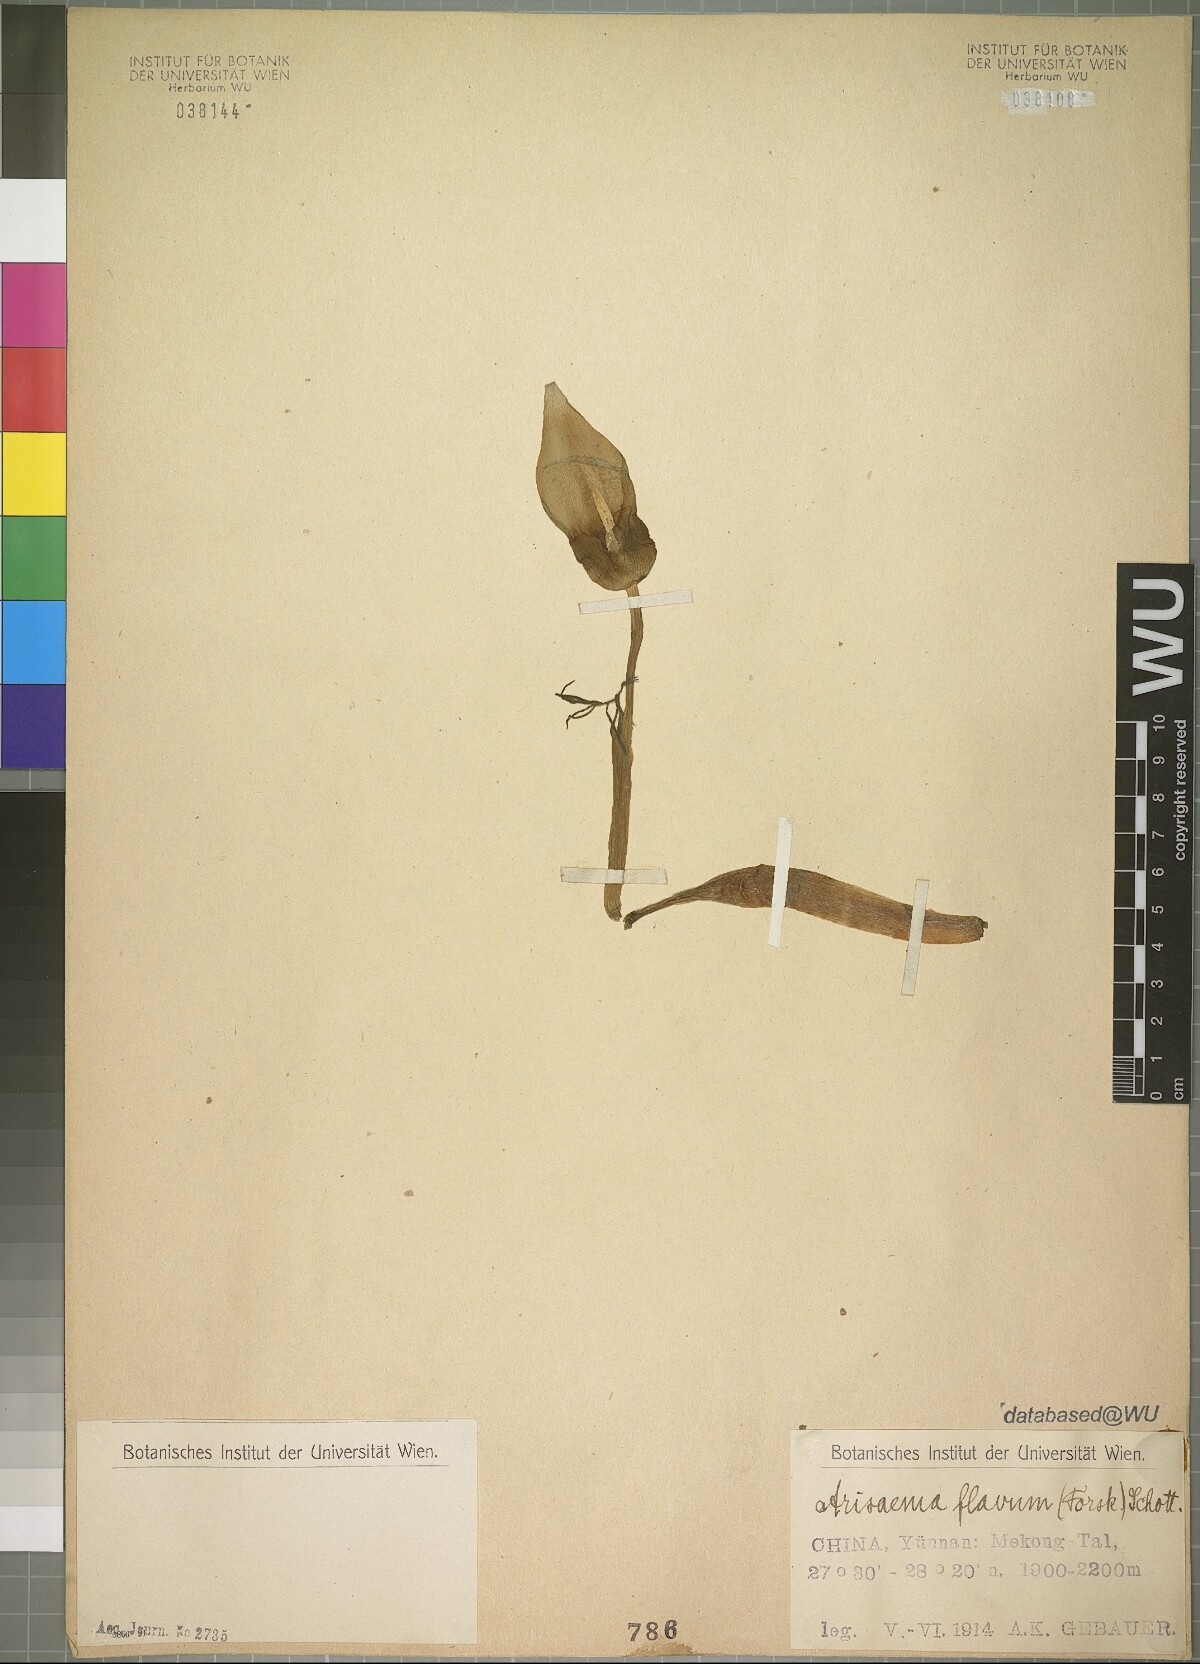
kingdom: Plantae
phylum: Tracheophyta
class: Liliopsida
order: Alismatales
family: Araceae
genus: Arisaema
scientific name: Arisaema flavum
